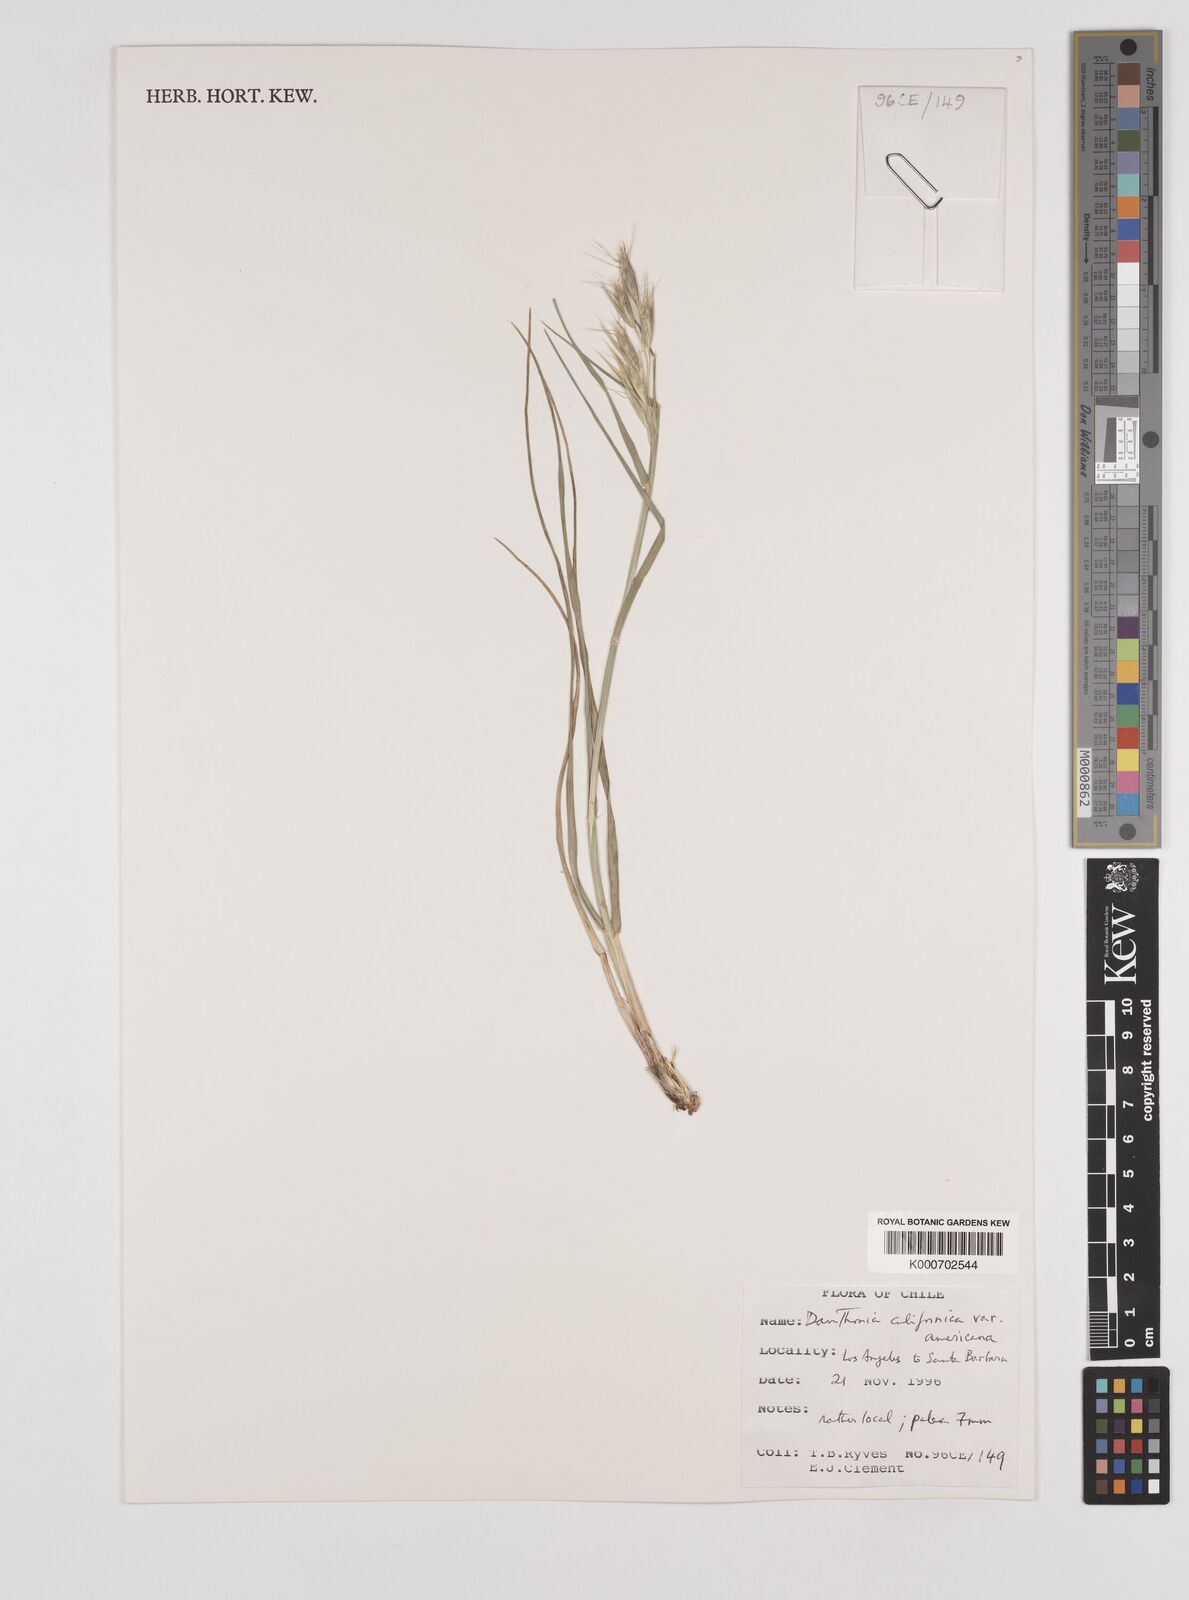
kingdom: Plantae
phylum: Tracheophyta
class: Liliopsida
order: Poales
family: Poaceae
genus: Danthonia
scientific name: Danthonia californica
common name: California oat grass
